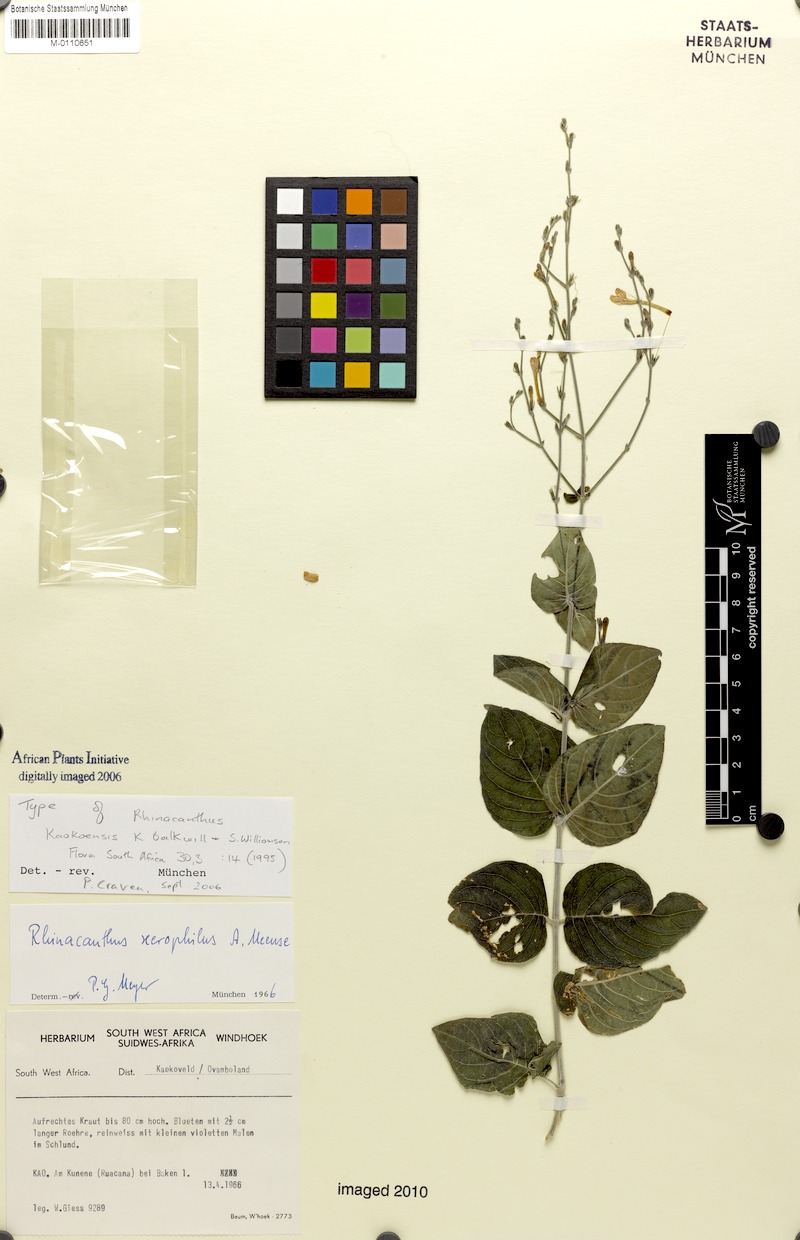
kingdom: Plantae
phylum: Tracheophyta
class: Magnoliopsida
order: Lamiales
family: Acanthaceae
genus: Rhinacanthus
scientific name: Rhinacanthus kaokoensis
